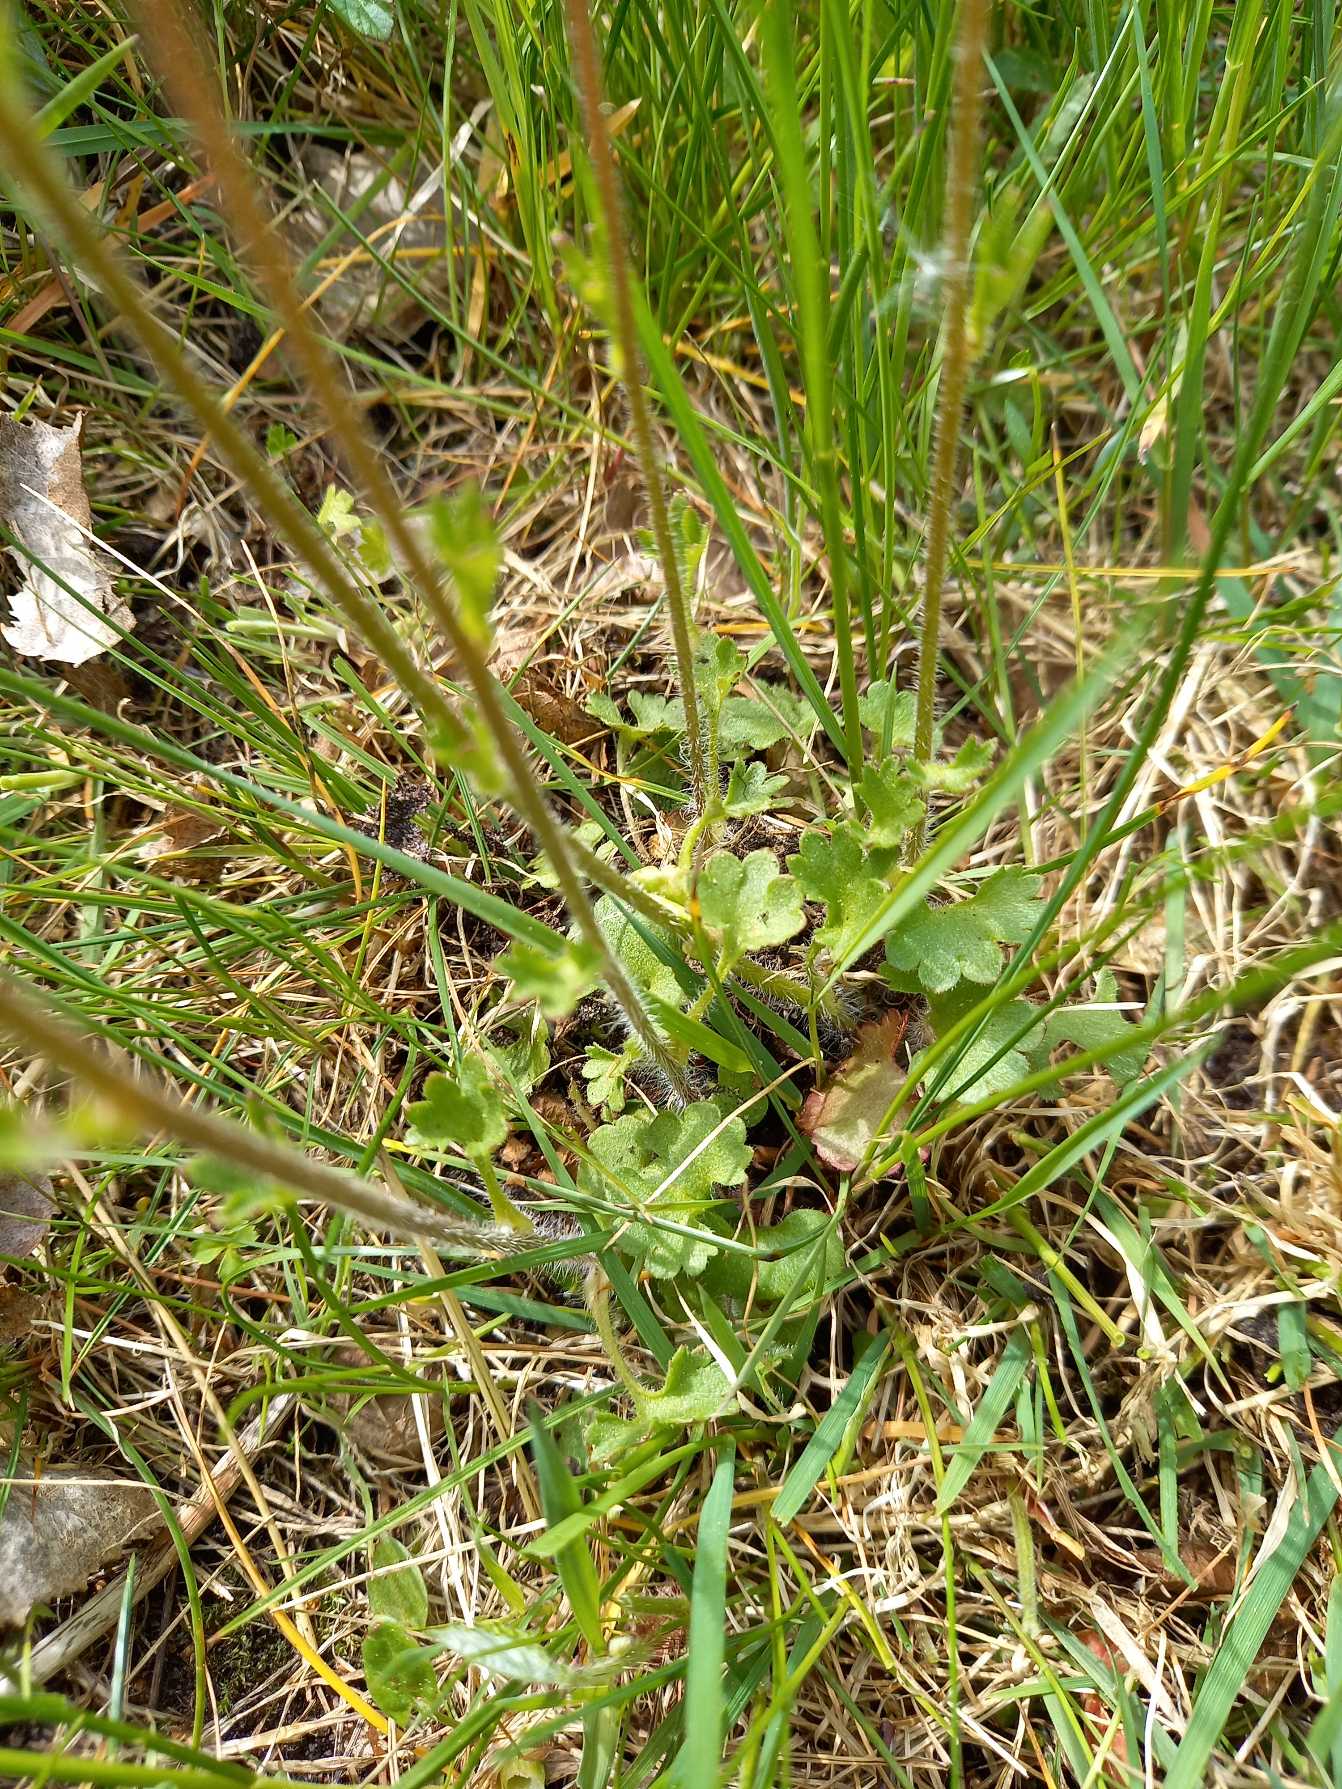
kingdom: Plantae
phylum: Tracheophyta
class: Magnoliopsida
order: Saxifragales
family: Saxifragaceae
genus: Saxifraga
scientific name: Saxifraga granulata
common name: Kornet stenbræk
